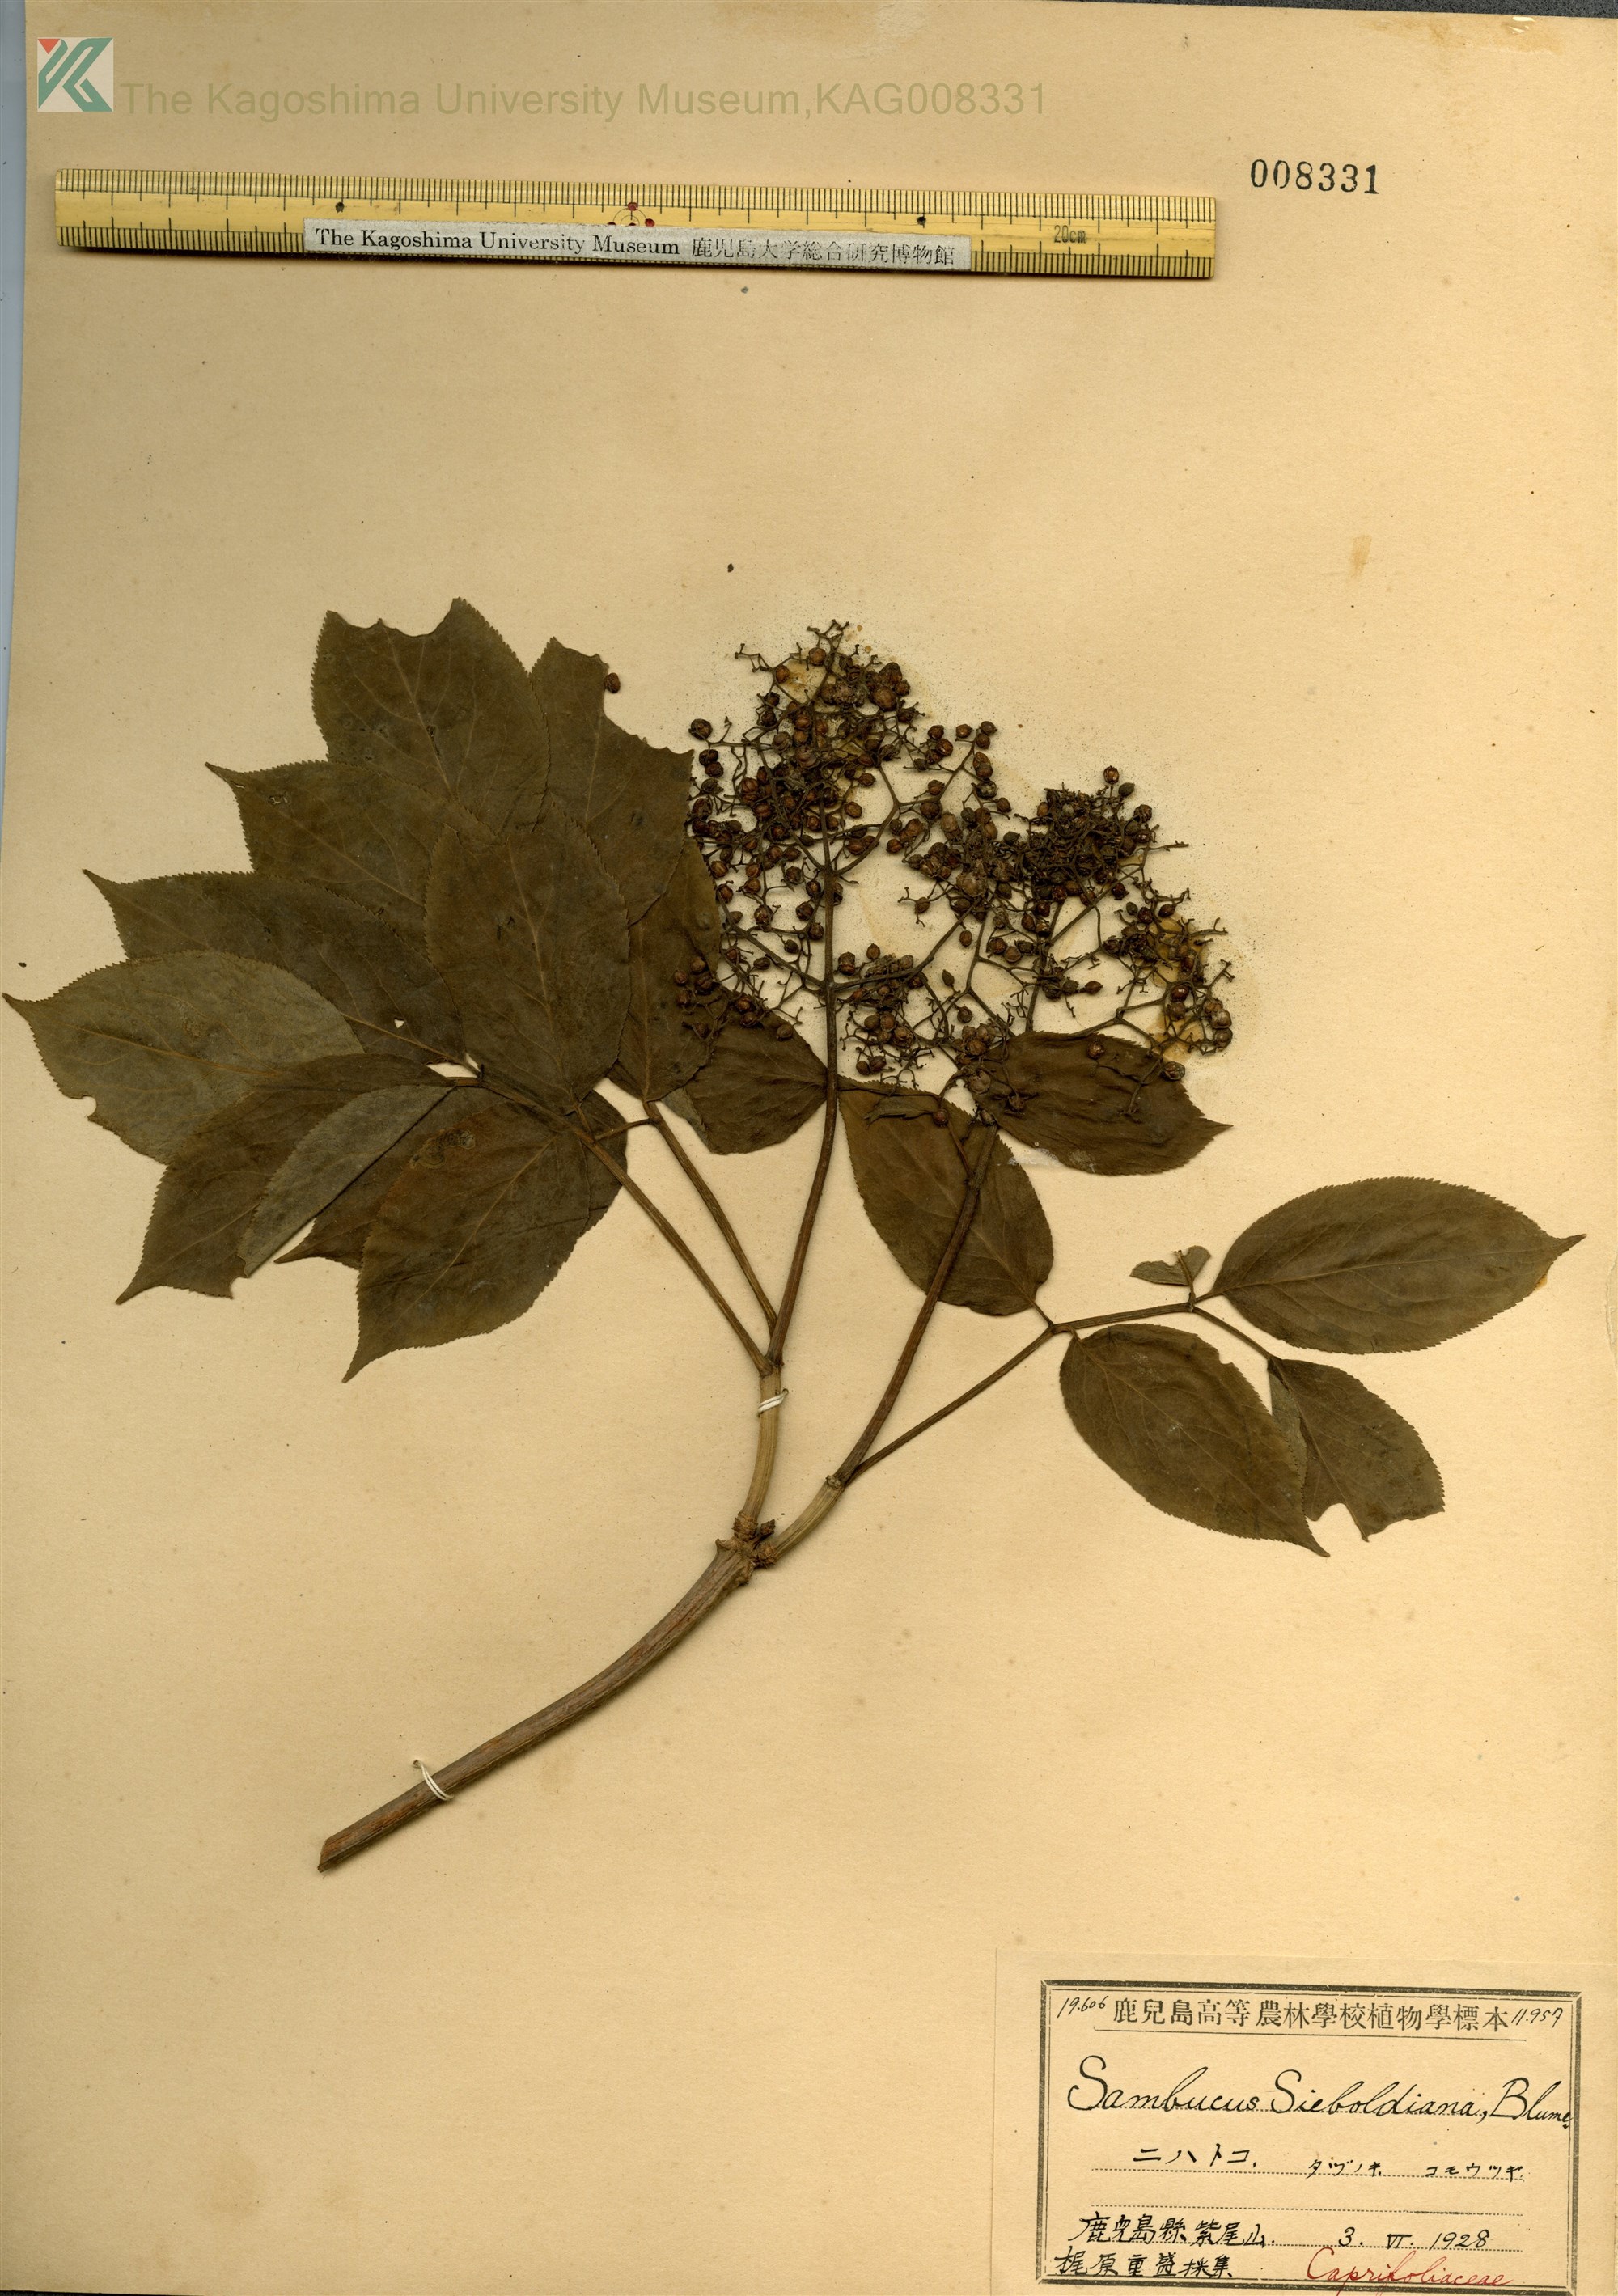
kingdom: Plantae
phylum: Tracheophyta
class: Magnoliopsida
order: Dipsacales
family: Viburnaceae
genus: Sambucus
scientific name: Sambucus sieboldiana
